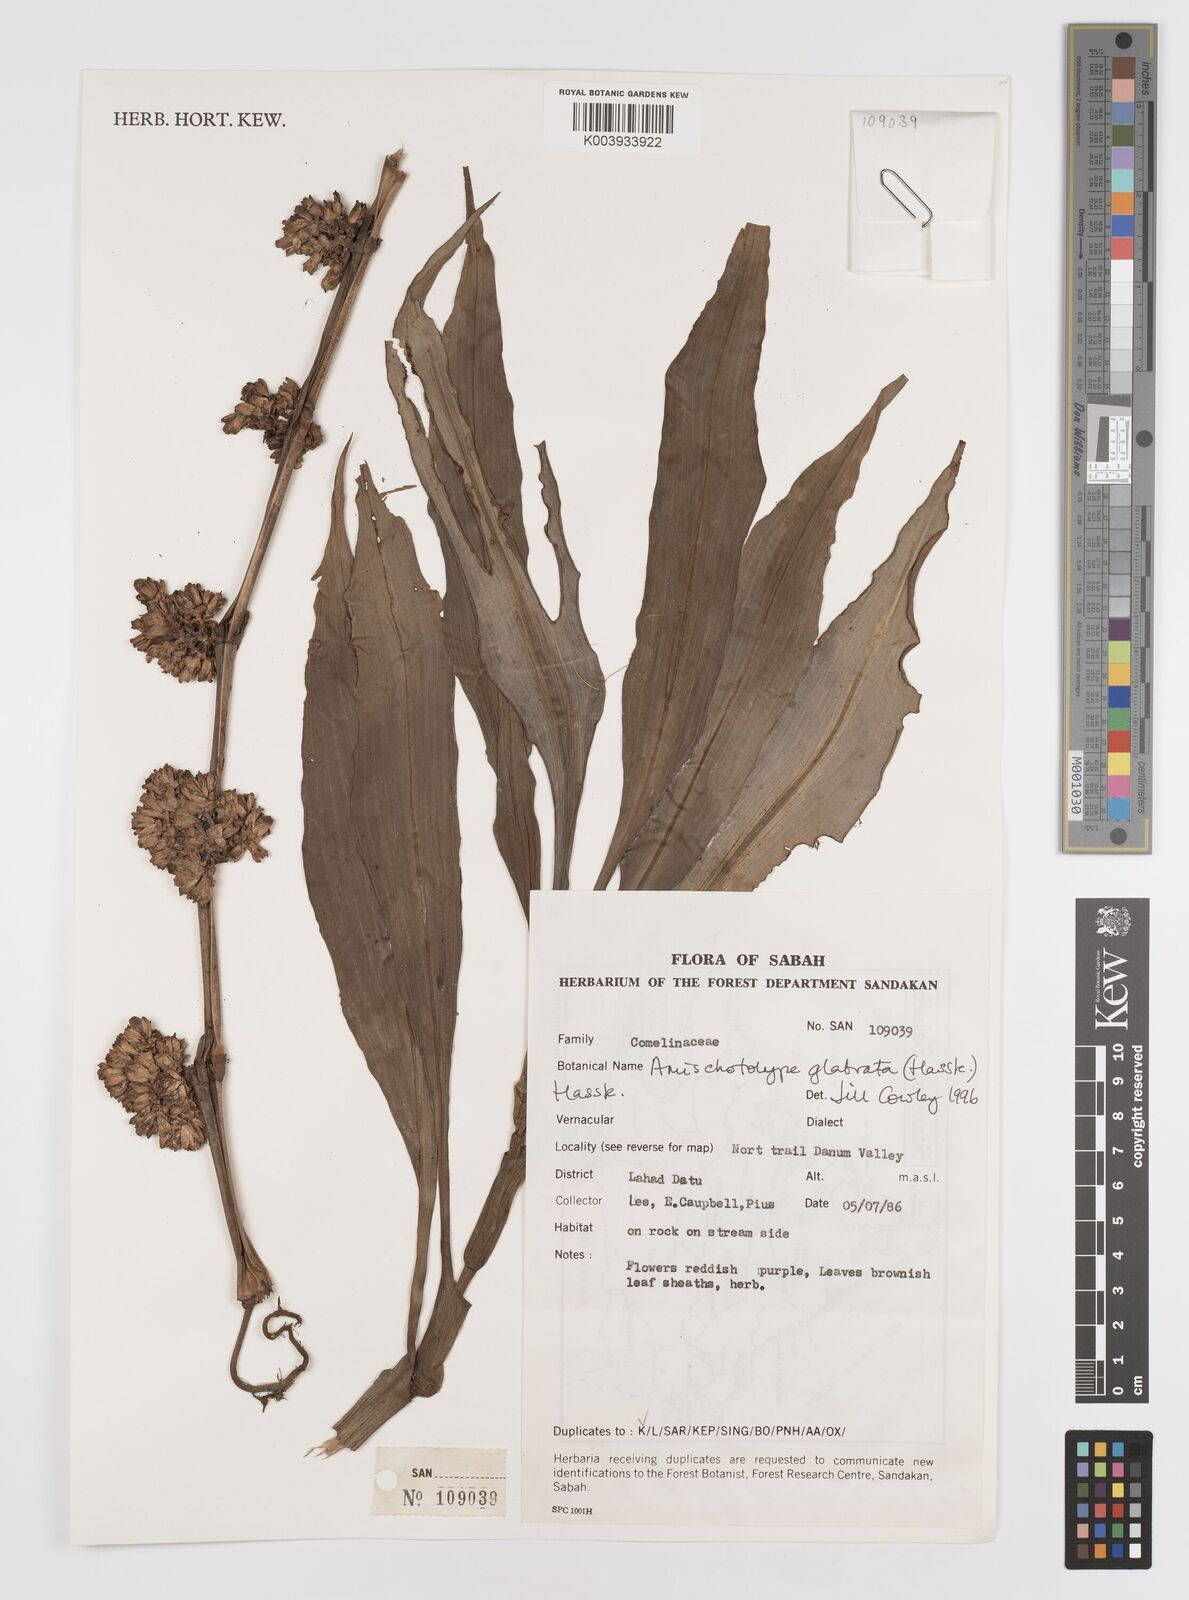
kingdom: Plantae
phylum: Tracheophyta
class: Liliopsida
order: Commelinales
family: Commelinaceae
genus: Amischotolype
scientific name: Amischotolype glabrata
